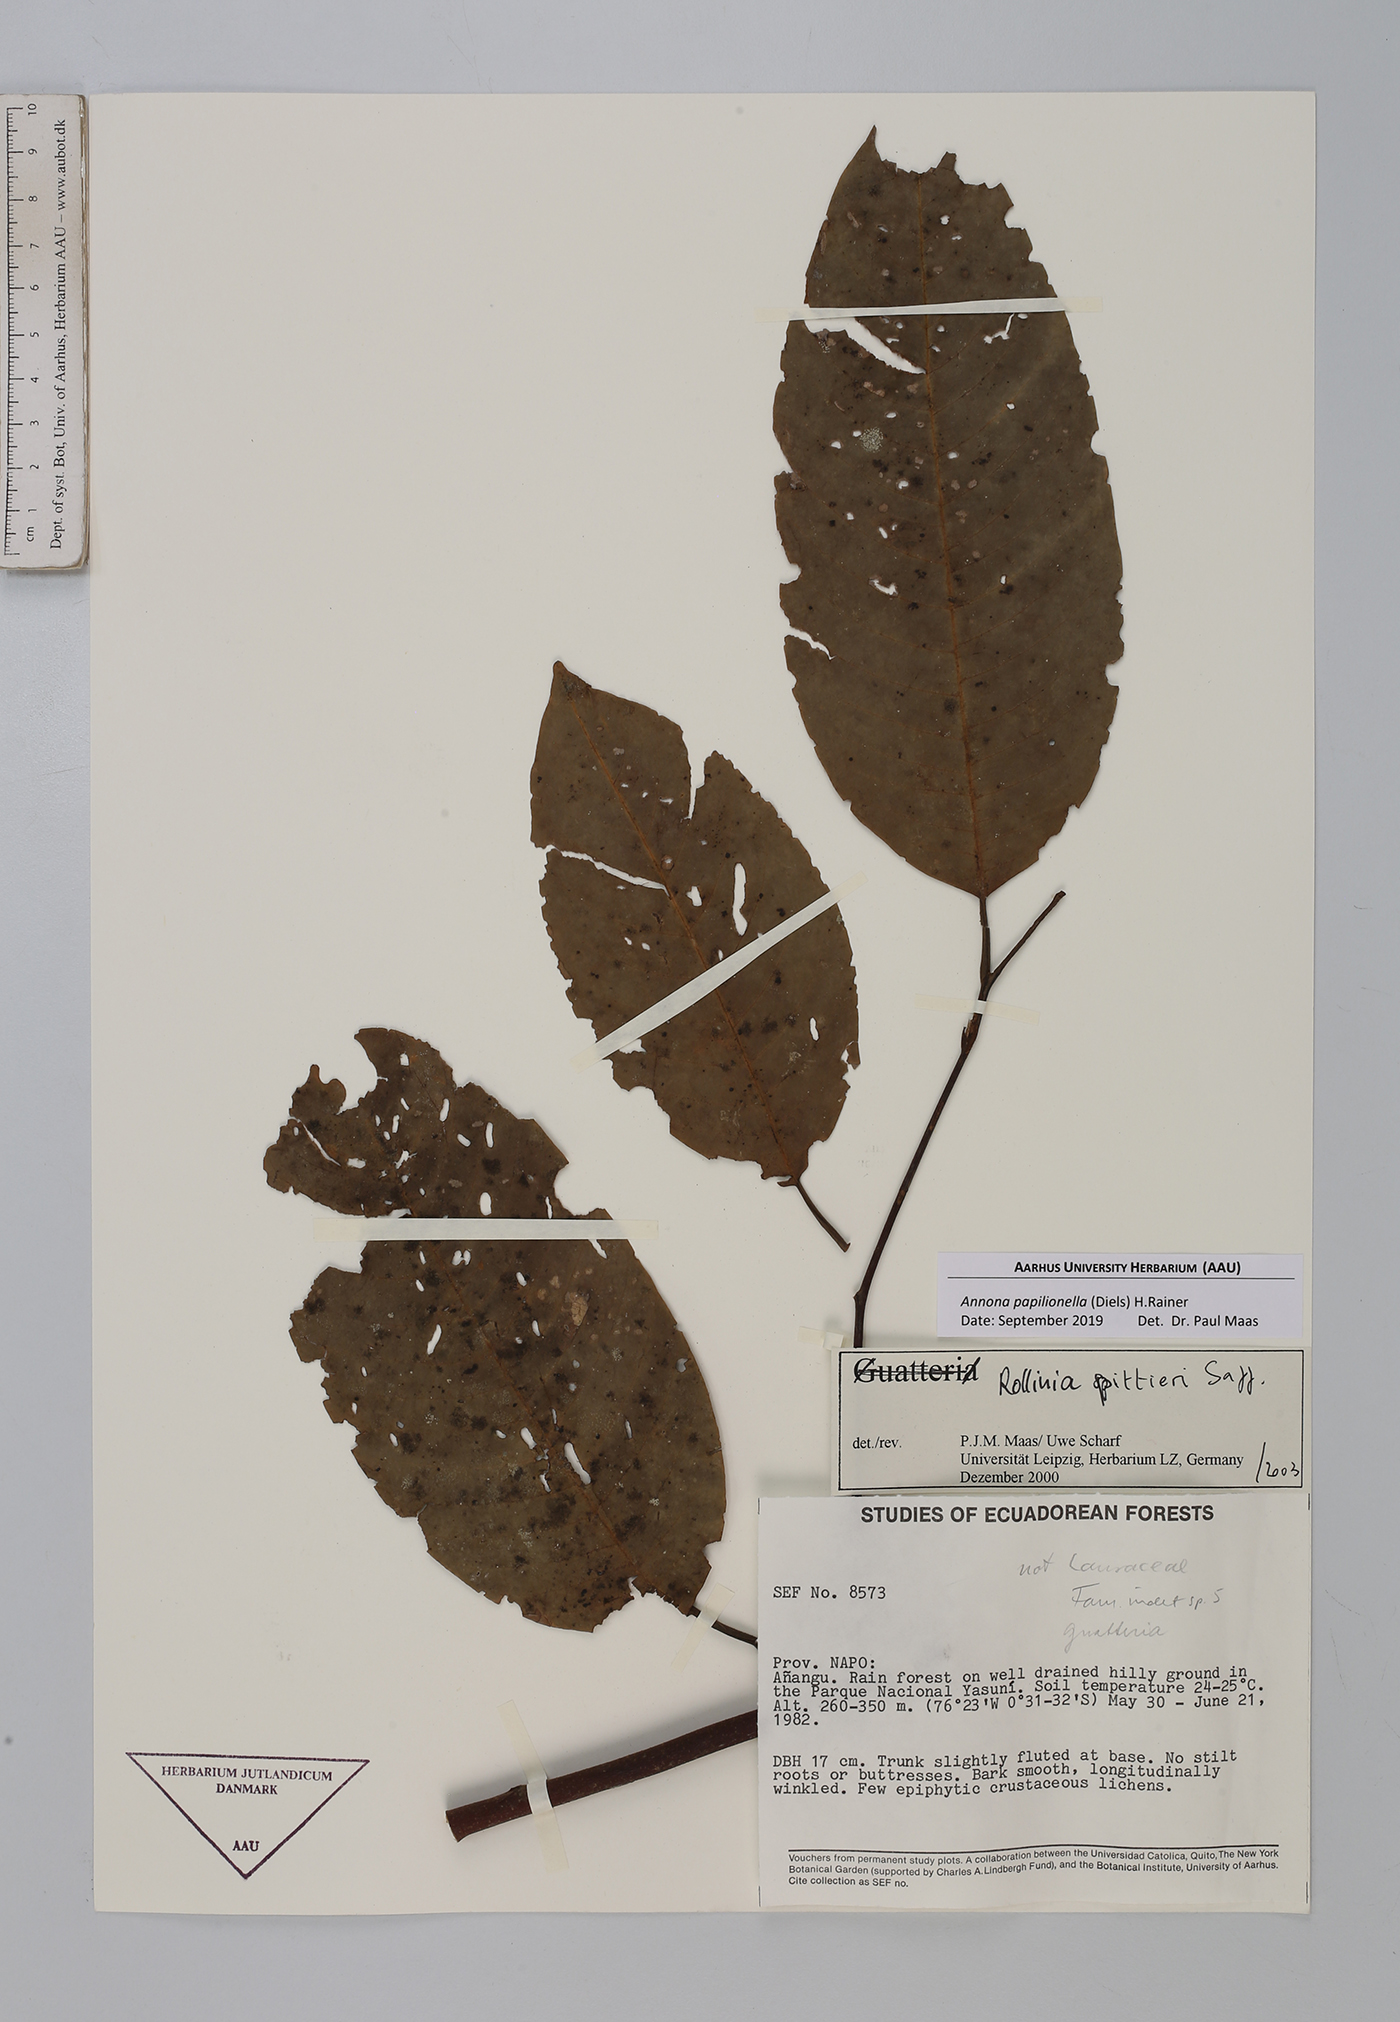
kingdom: Plantae
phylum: Tracheophyta
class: Magnoliopsida
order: Magnoliales
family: Annonaceae
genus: Annona
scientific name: Annona papilionella
